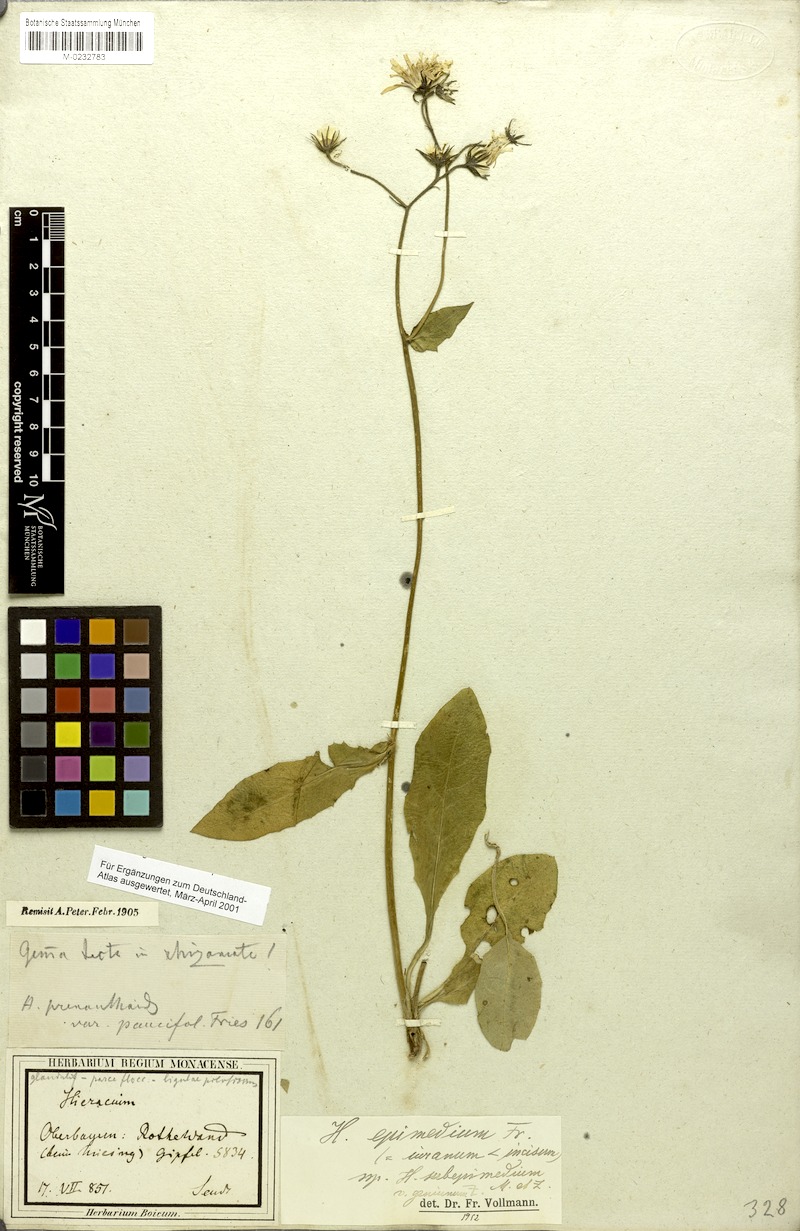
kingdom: Plantae
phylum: Tracheophyta
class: Magnoliopsida
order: Asterales
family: Asteraceae
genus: Hieracium
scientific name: Hieracium froelichianum
